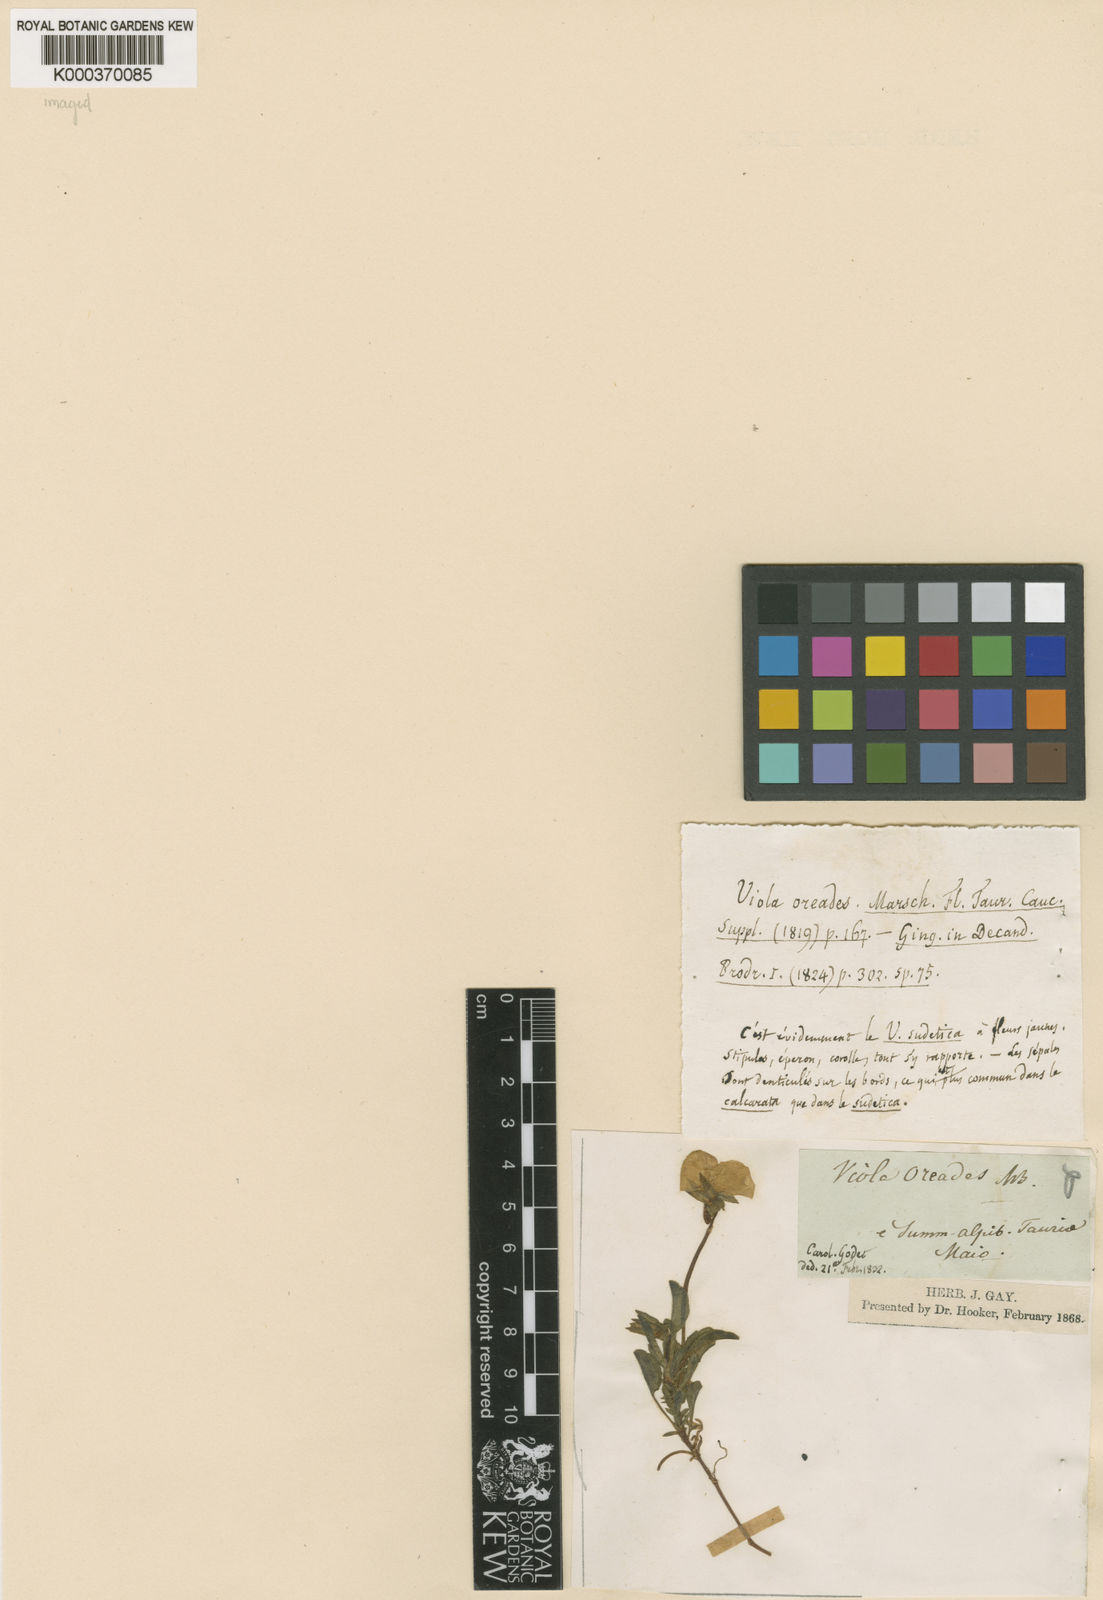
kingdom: Plantae
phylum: Tracheophyta
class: Magnoliopsida
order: Malpighiales
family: Violaceae
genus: Viola
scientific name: Viola altaica
